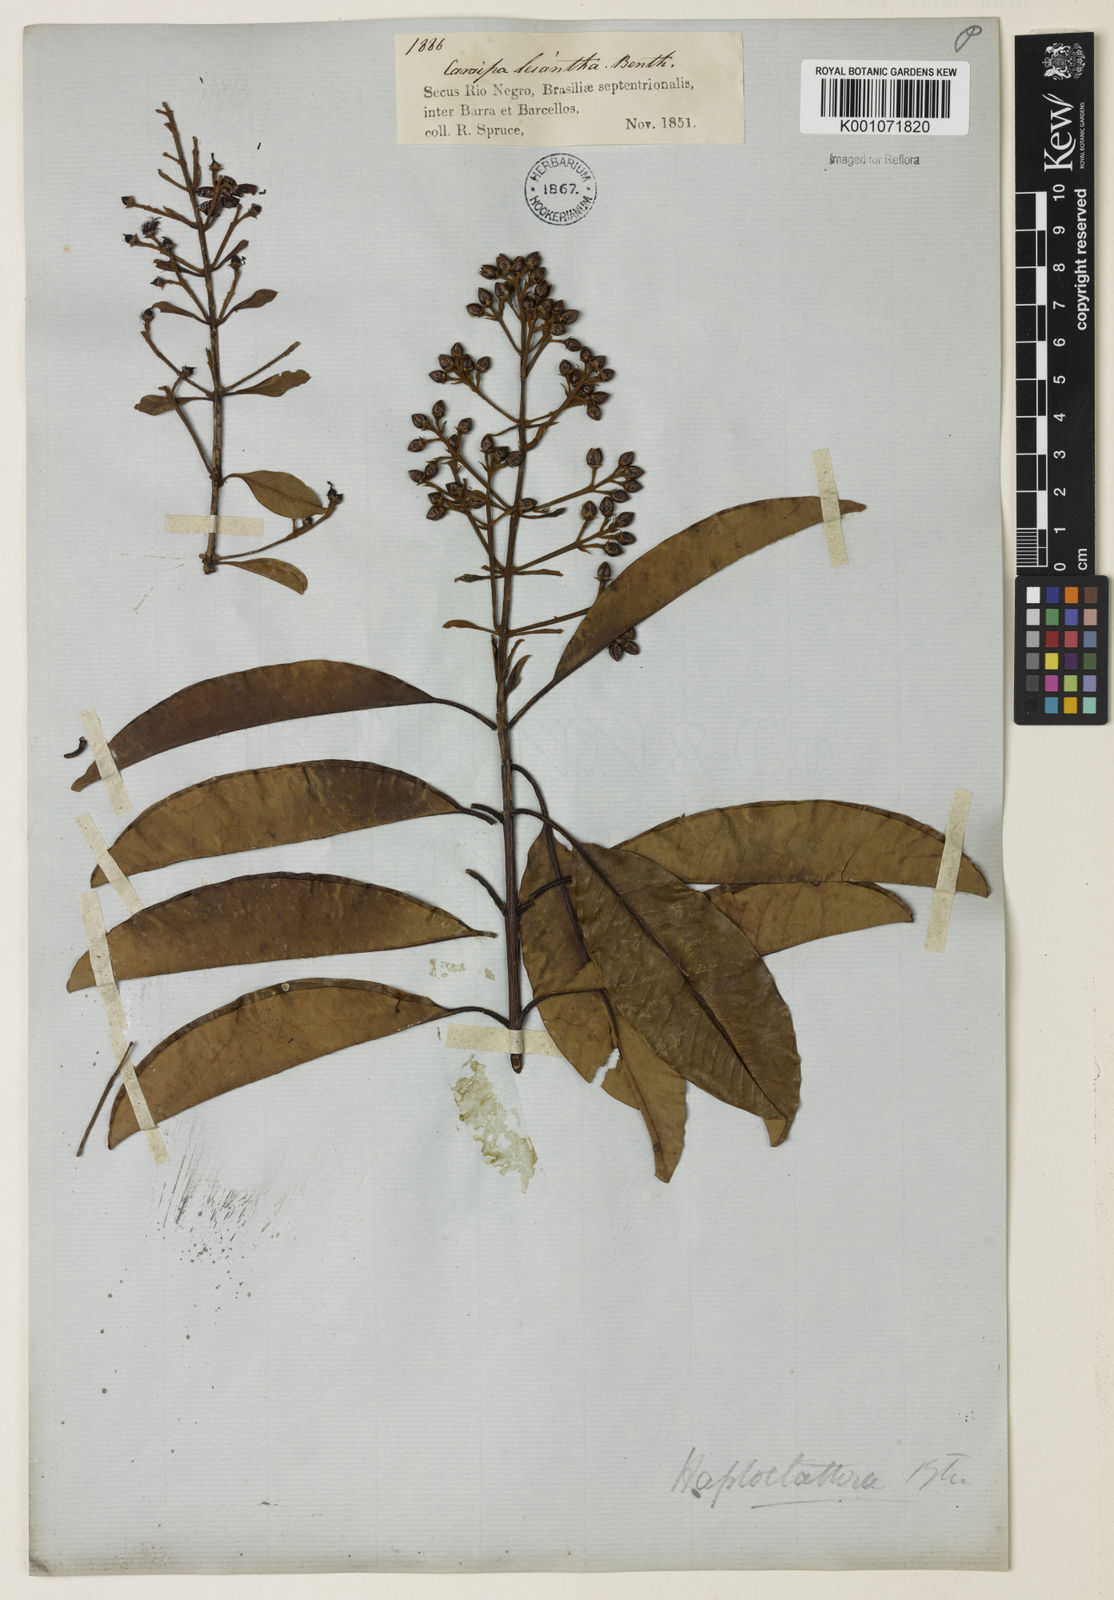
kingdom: Plantae
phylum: Tracheophyta
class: Magnoliopsida
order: Malpighiales
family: Calophyllaceae
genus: Haploclathra
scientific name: Haploclathra leiantha
